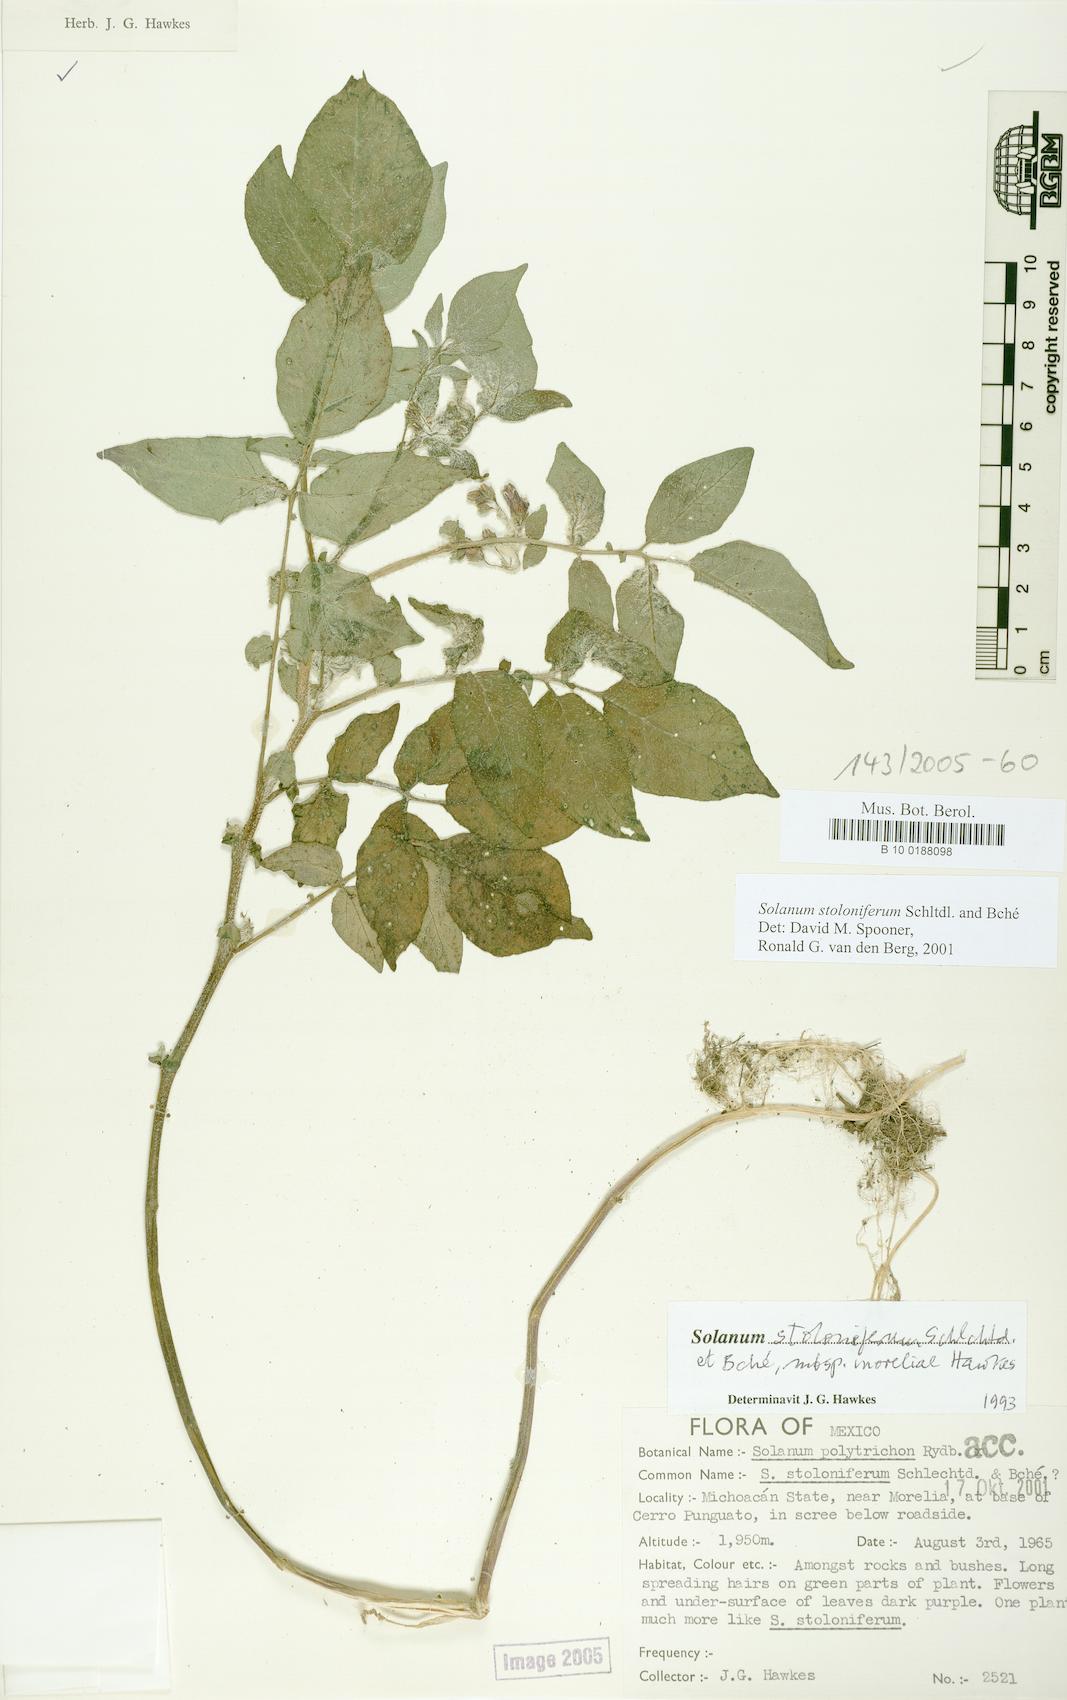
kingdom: Plantae
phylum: Tracheophyta
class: Magnoliopsida
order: Solanales
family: Solanaceae
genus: Solanum
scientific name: Solanum stoloniferum
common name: Fendler's nighshade
